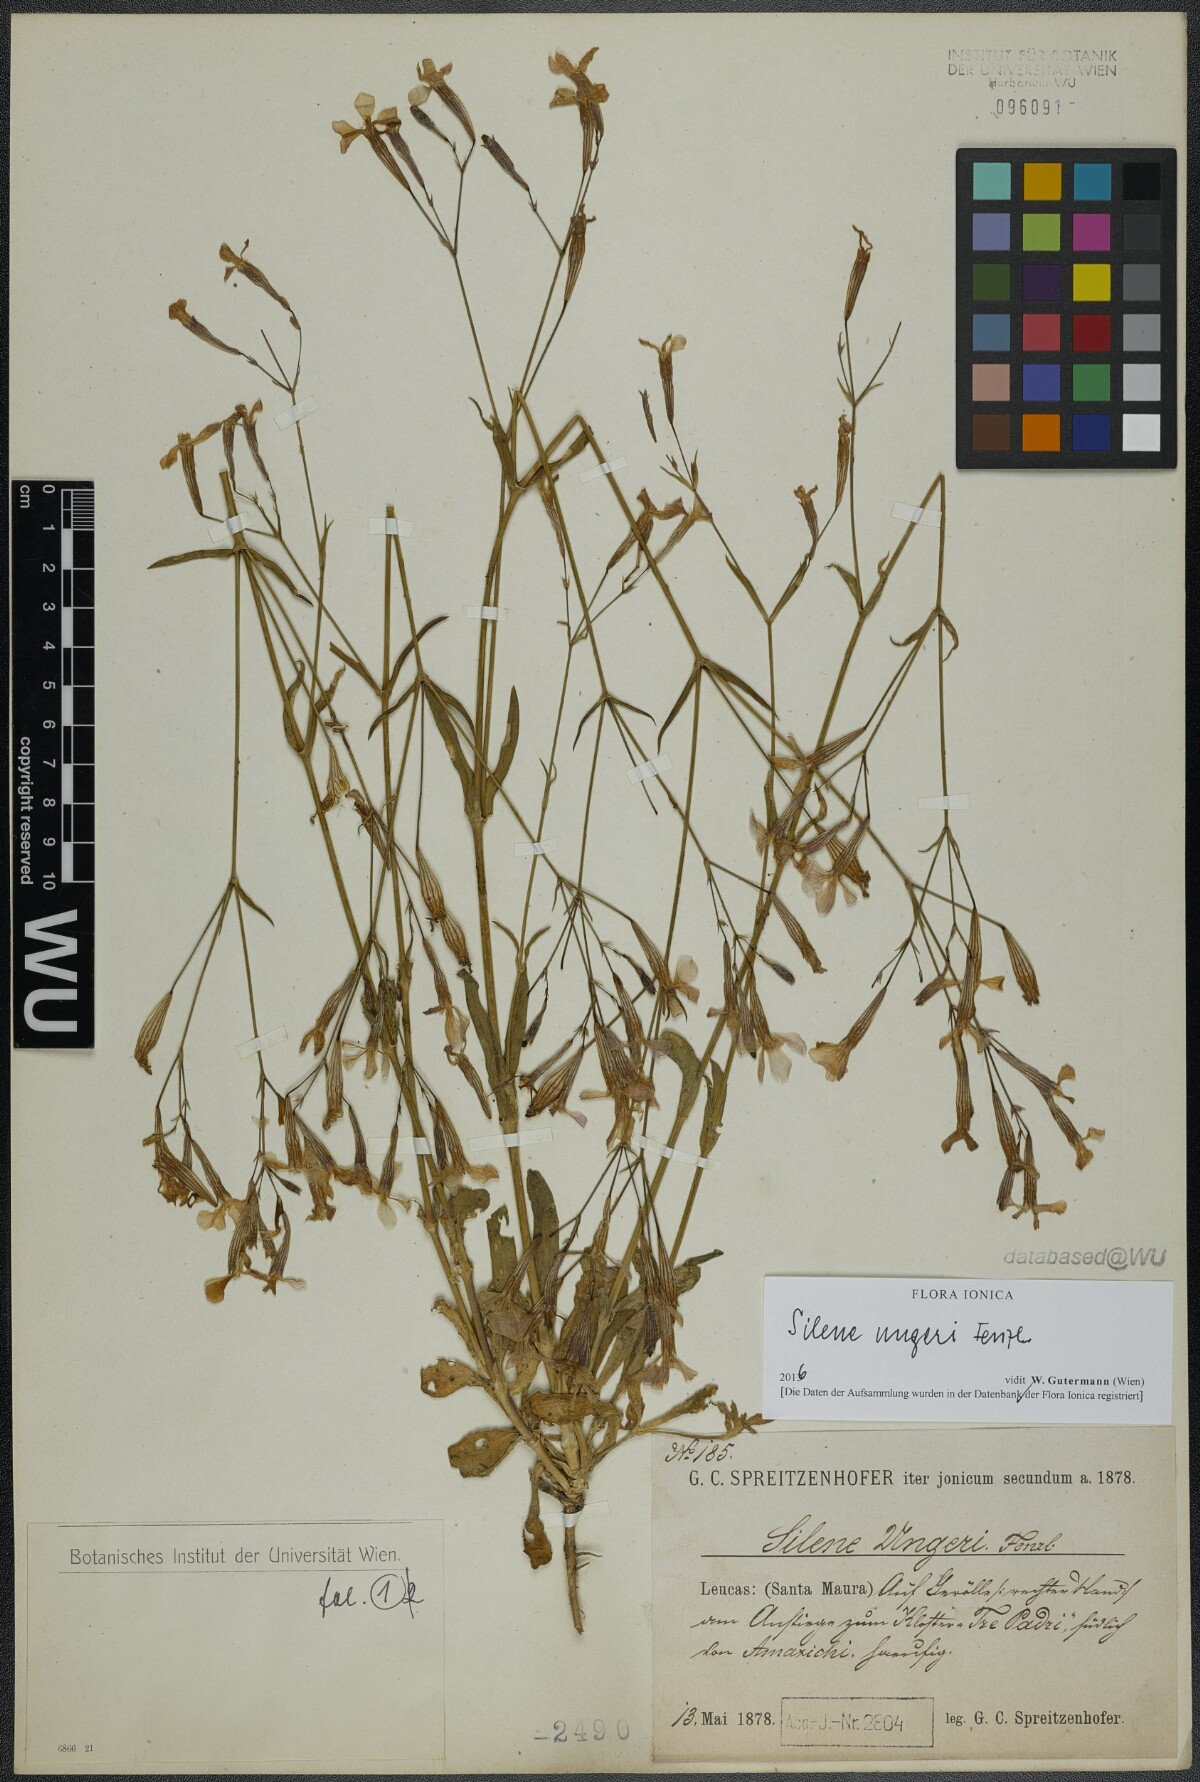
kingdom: Plantae
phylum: Tracheophyta
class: Magnoliopsida
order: Caryophyllales
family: Caryophyllaceae
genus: Silene
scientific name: Silene ungeri
